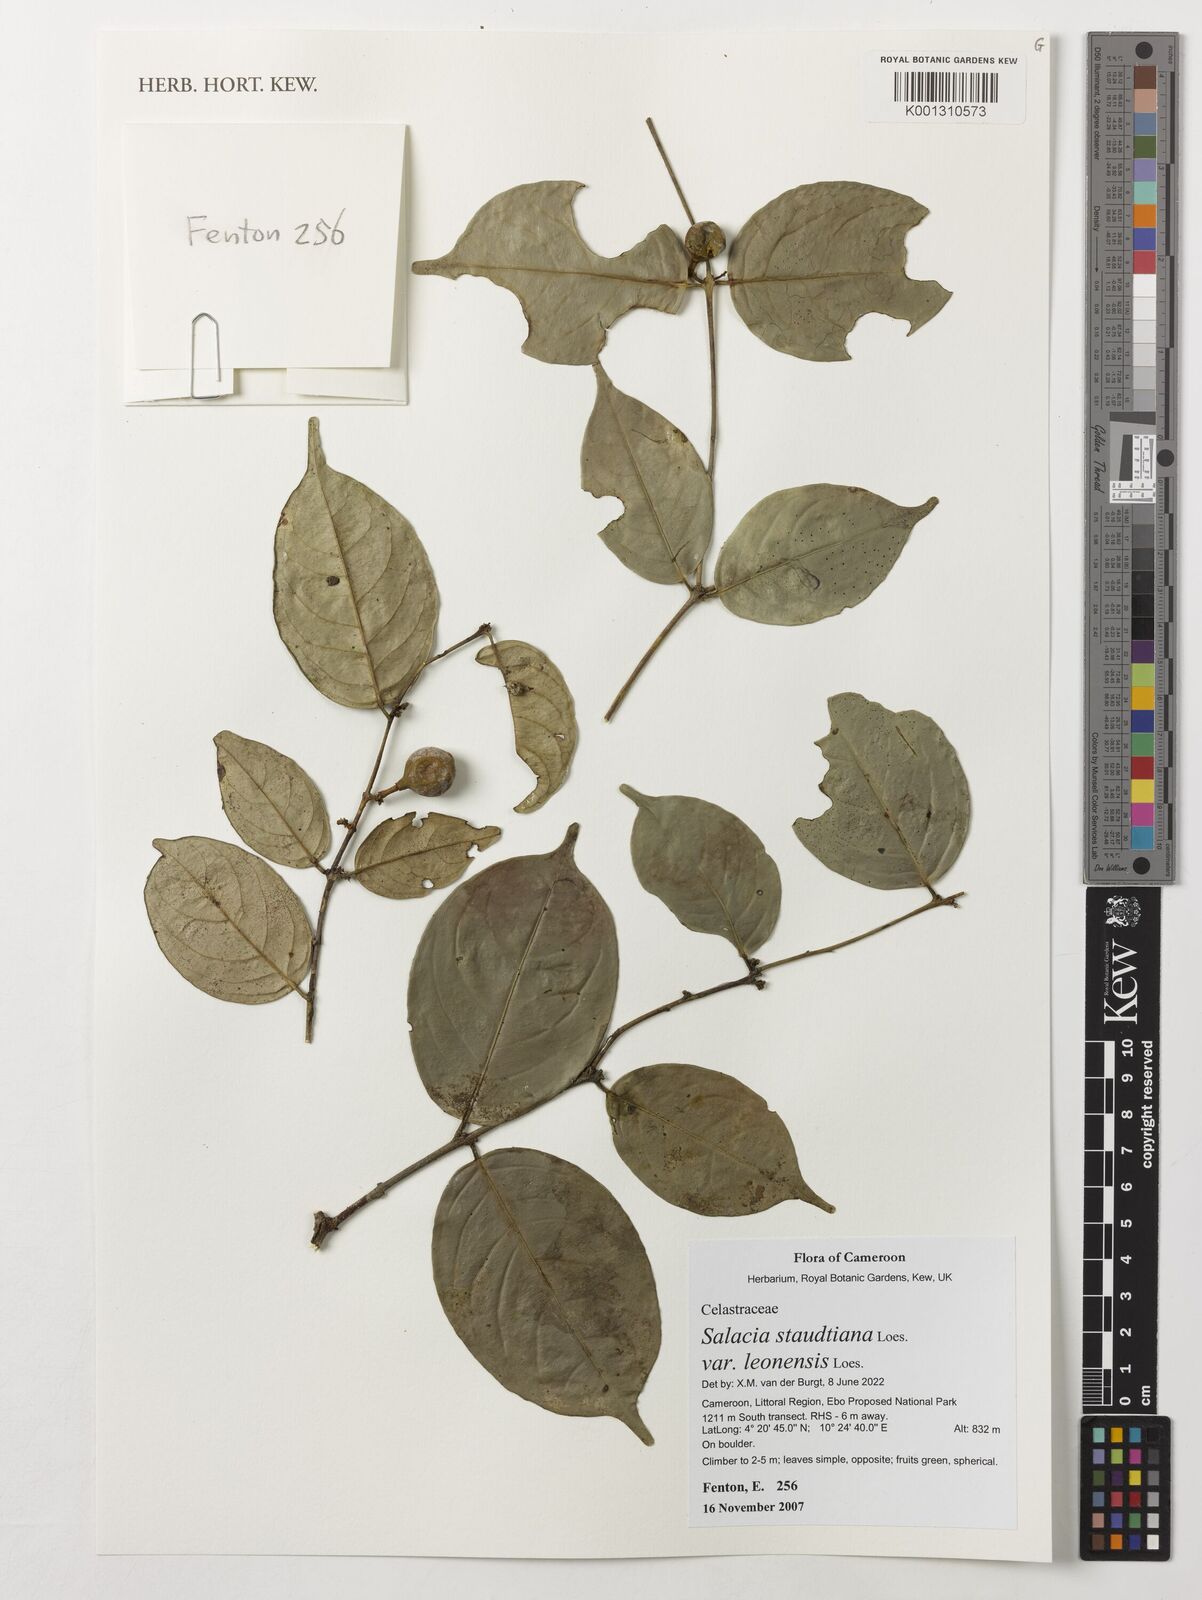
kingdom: Plantae
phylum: Tracheophyta
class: Magnoliopsida
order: Celastrales
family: Celastraceae
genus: Salacia
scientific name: Salacia staudtiana
